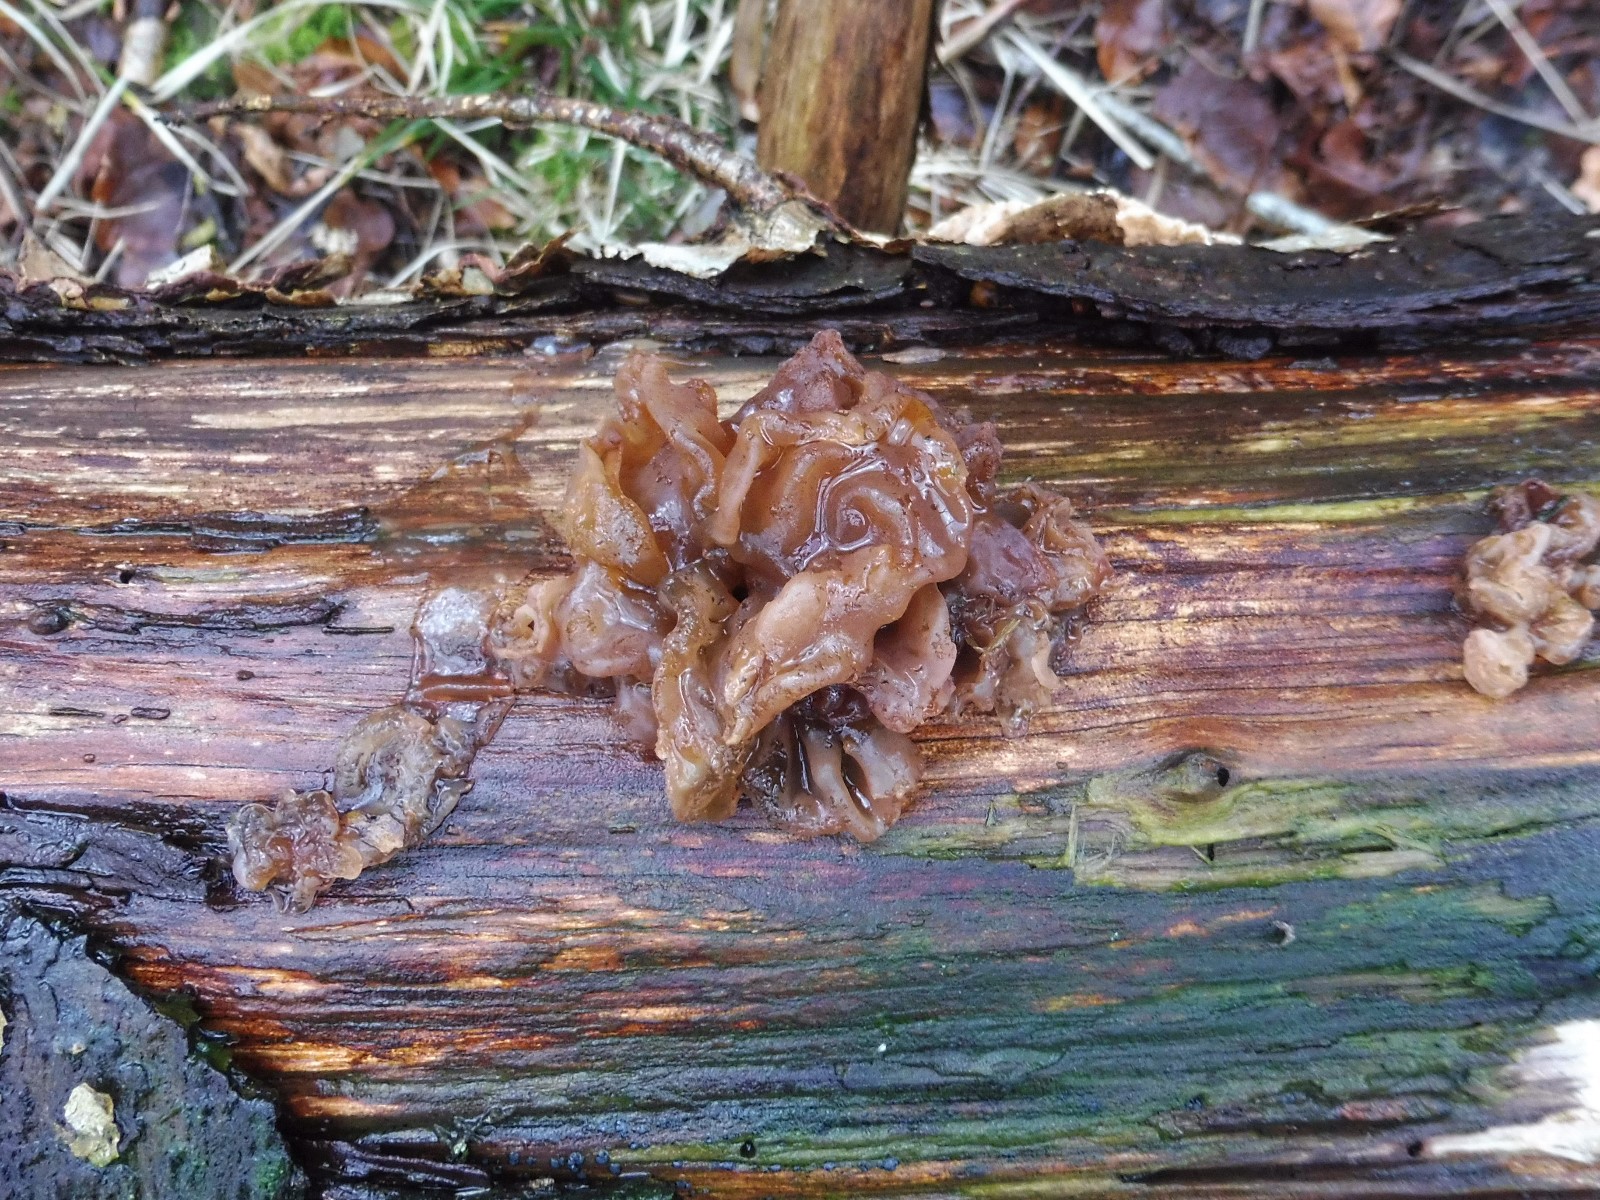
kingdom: Fungi
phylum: Basidiomycota
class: Tremellomycetes
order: Tremellales
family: Tremellaceae
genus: Phaeotremella
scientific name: Phaeotremella frondosa
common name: kæmpe-bævresvamp
